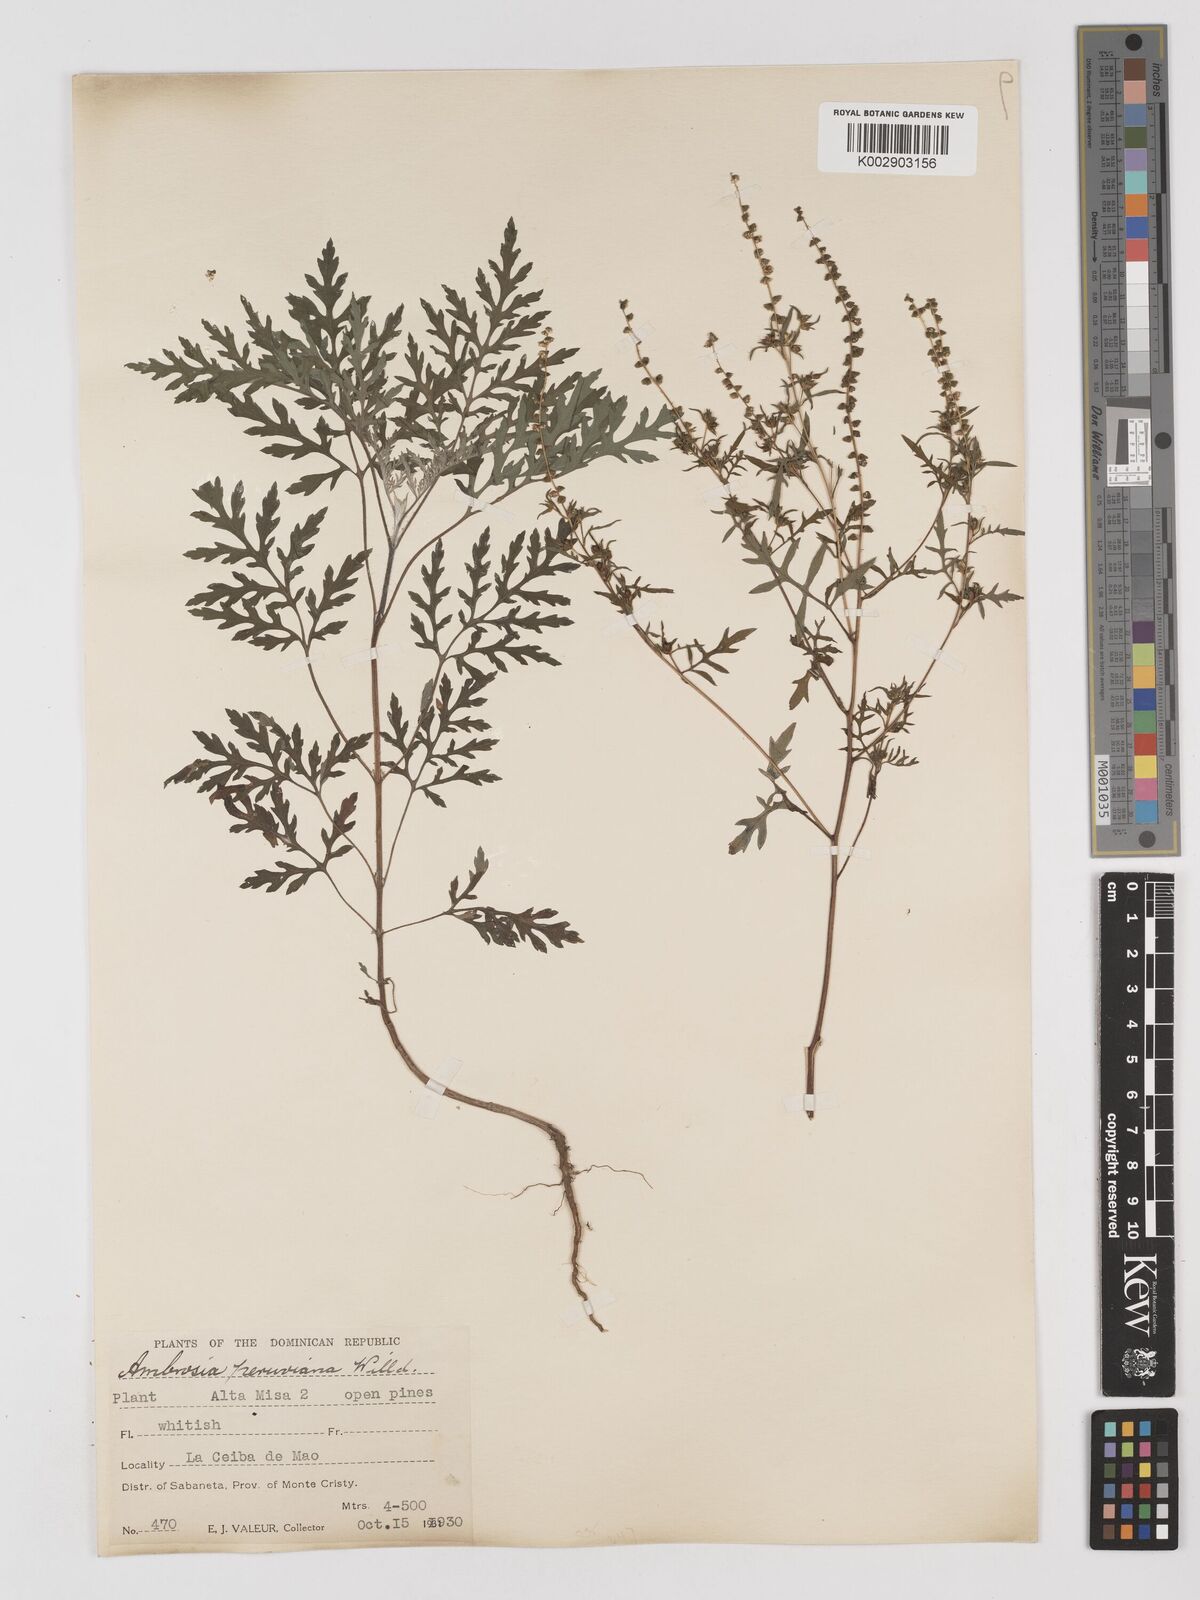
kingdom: Plantae
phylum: Tracheophyta
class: Magnoliopsida
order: Asterales
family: Asteraceae
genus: Ambrosia
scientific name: Ambrosia cumanensis
